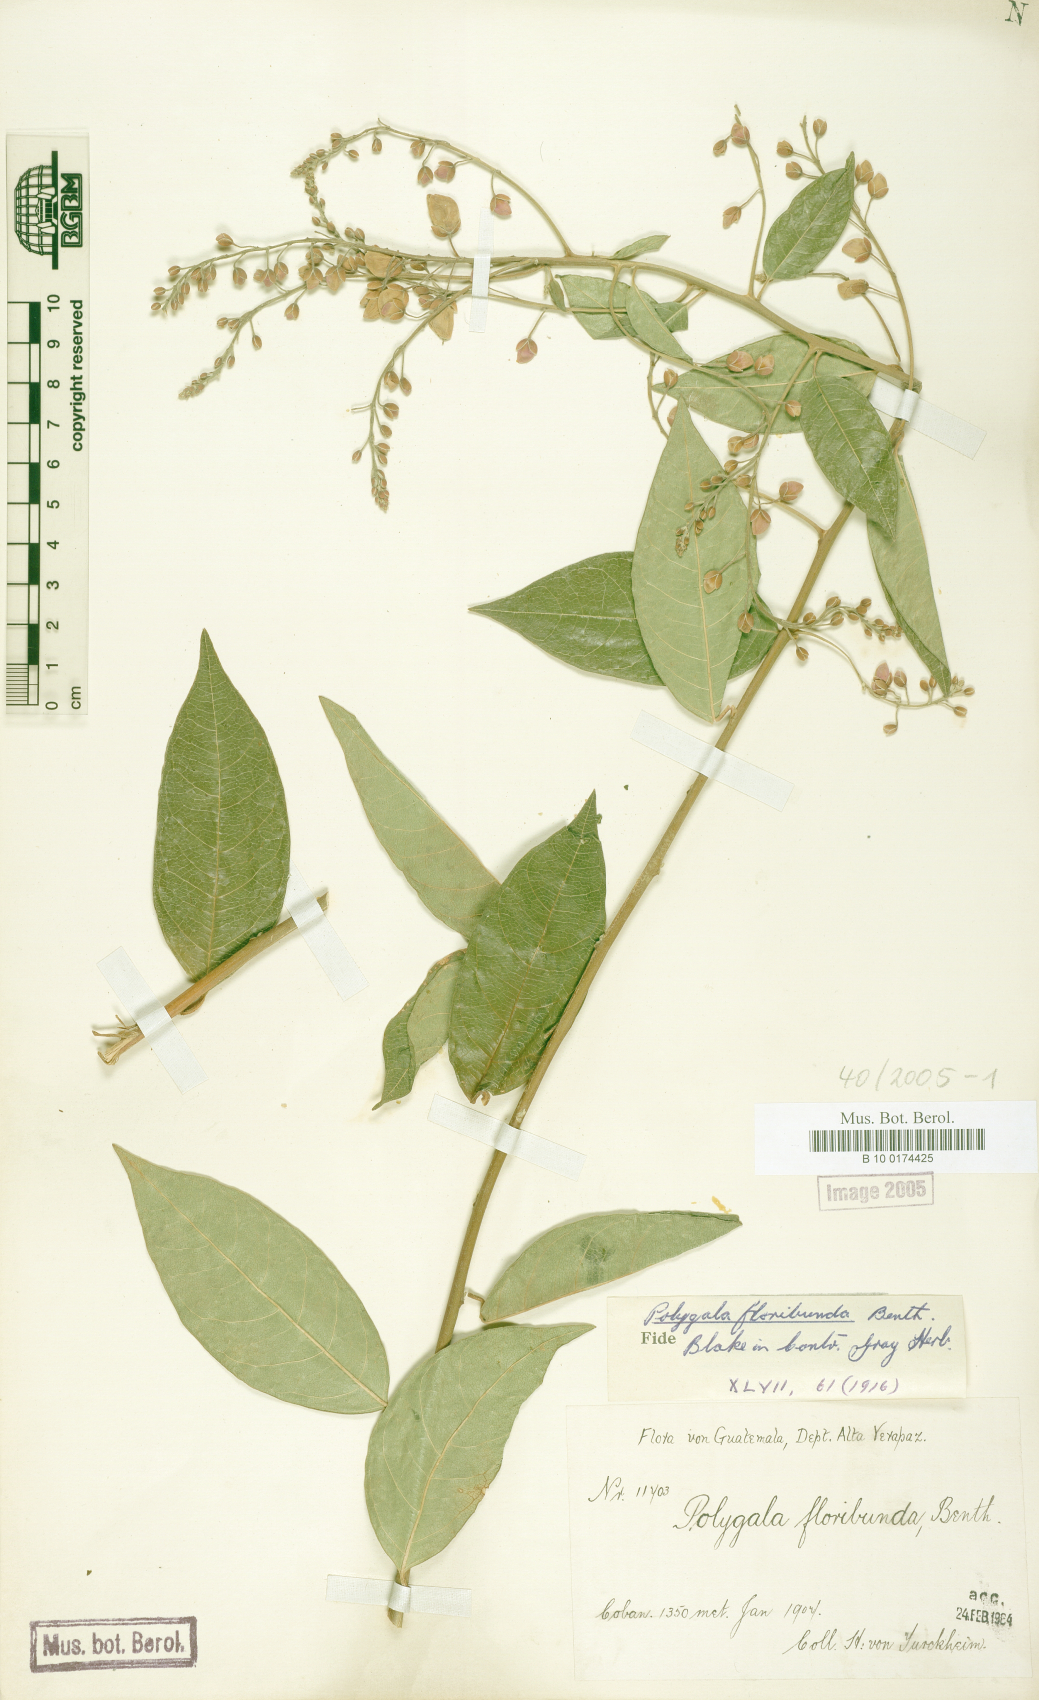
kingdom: Plantae
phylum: Tracheophyta
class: Magnoliopsida
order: Fabales
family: Polygalaceae
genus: Asemeia
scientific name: Asemeia floribunda
